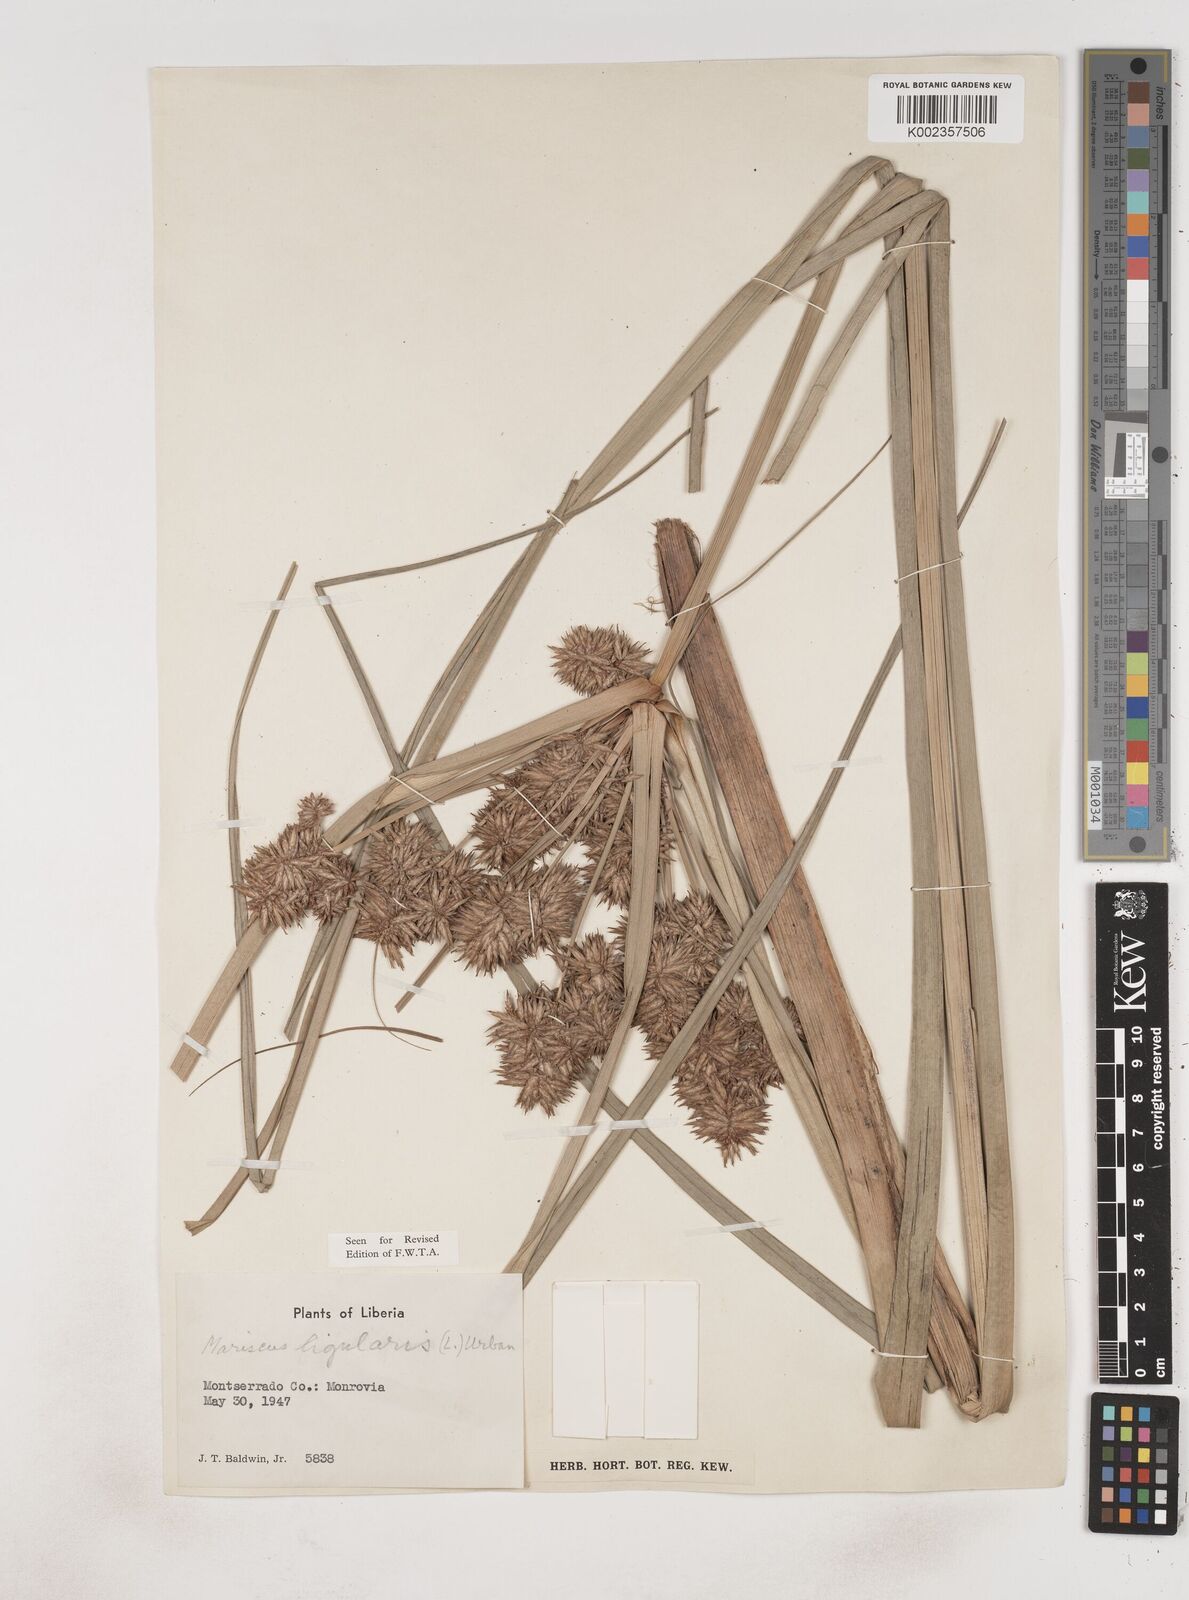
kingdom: Plantae
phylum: Tracheophyta
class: Liliopsida
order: Poales
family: Cyperaceae
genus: Cyperus
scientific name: Cyperus ligularis
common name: Swamp flat sedge
